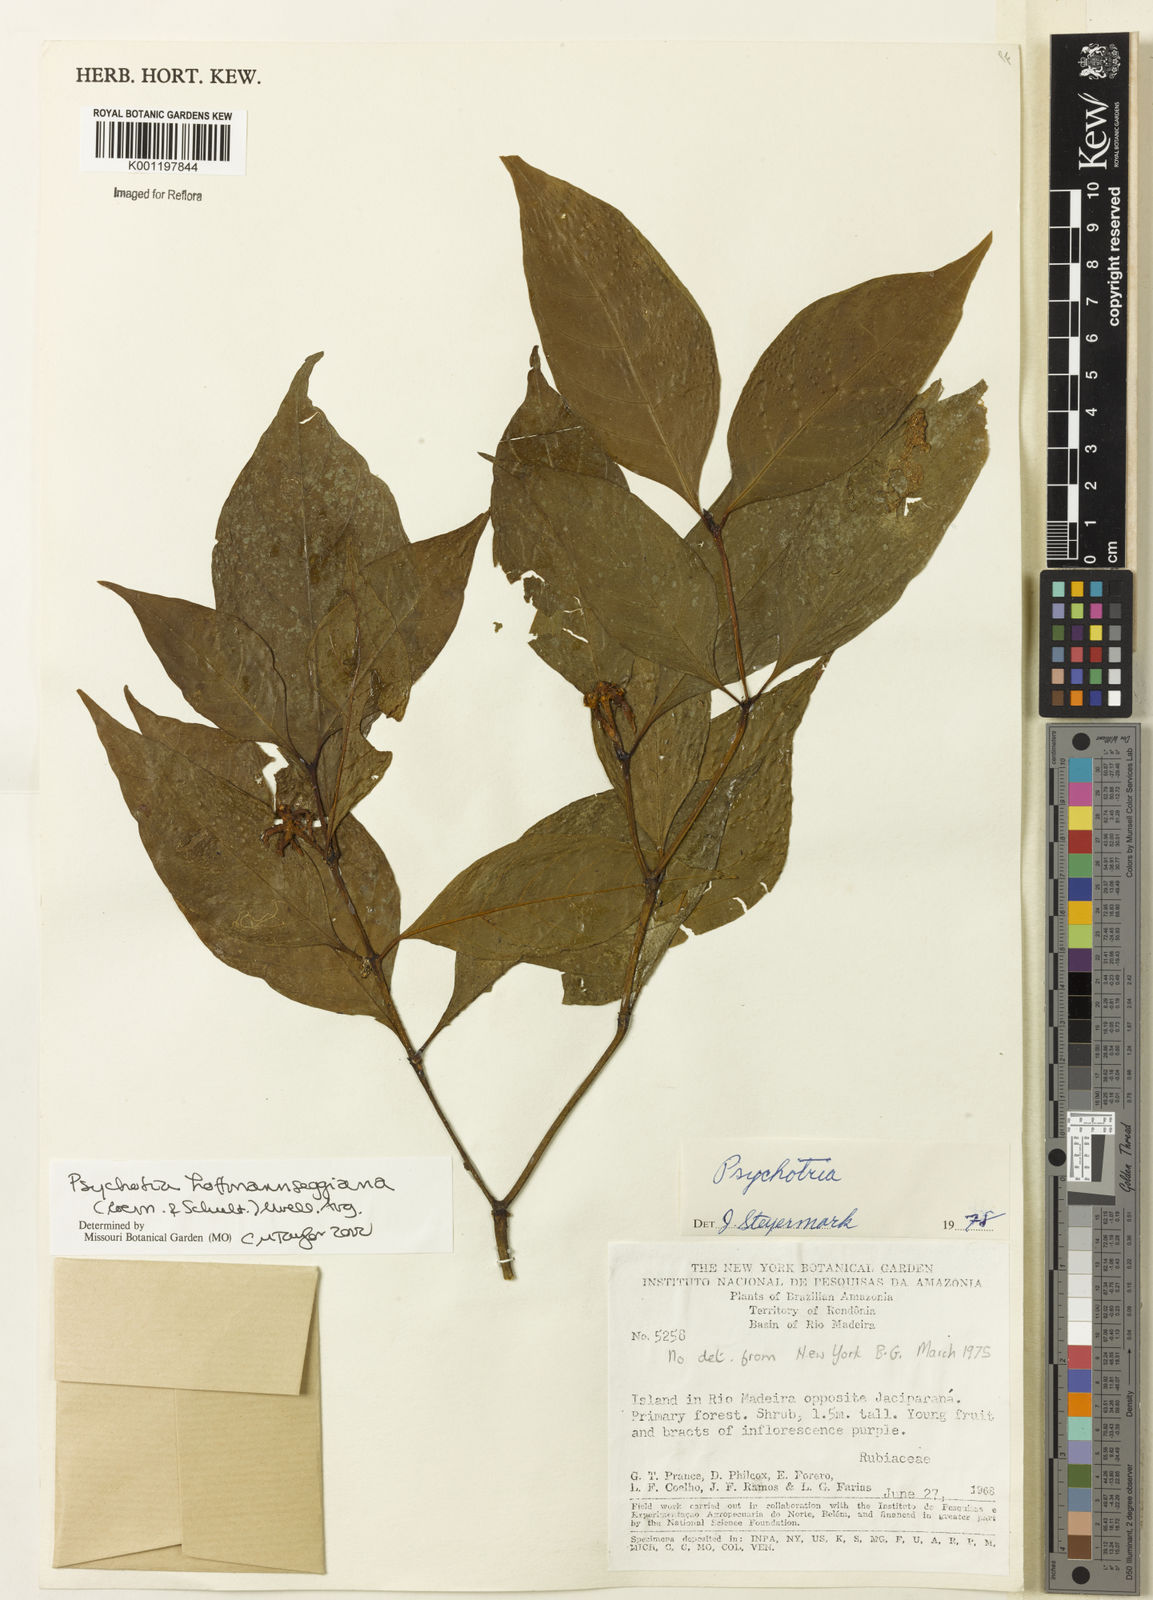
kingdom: Plantae
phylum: Tracheophyta
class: Magnoliopsida
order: Gentianales
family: Rubiaceae
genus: Psychotria
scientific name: Psychotria
